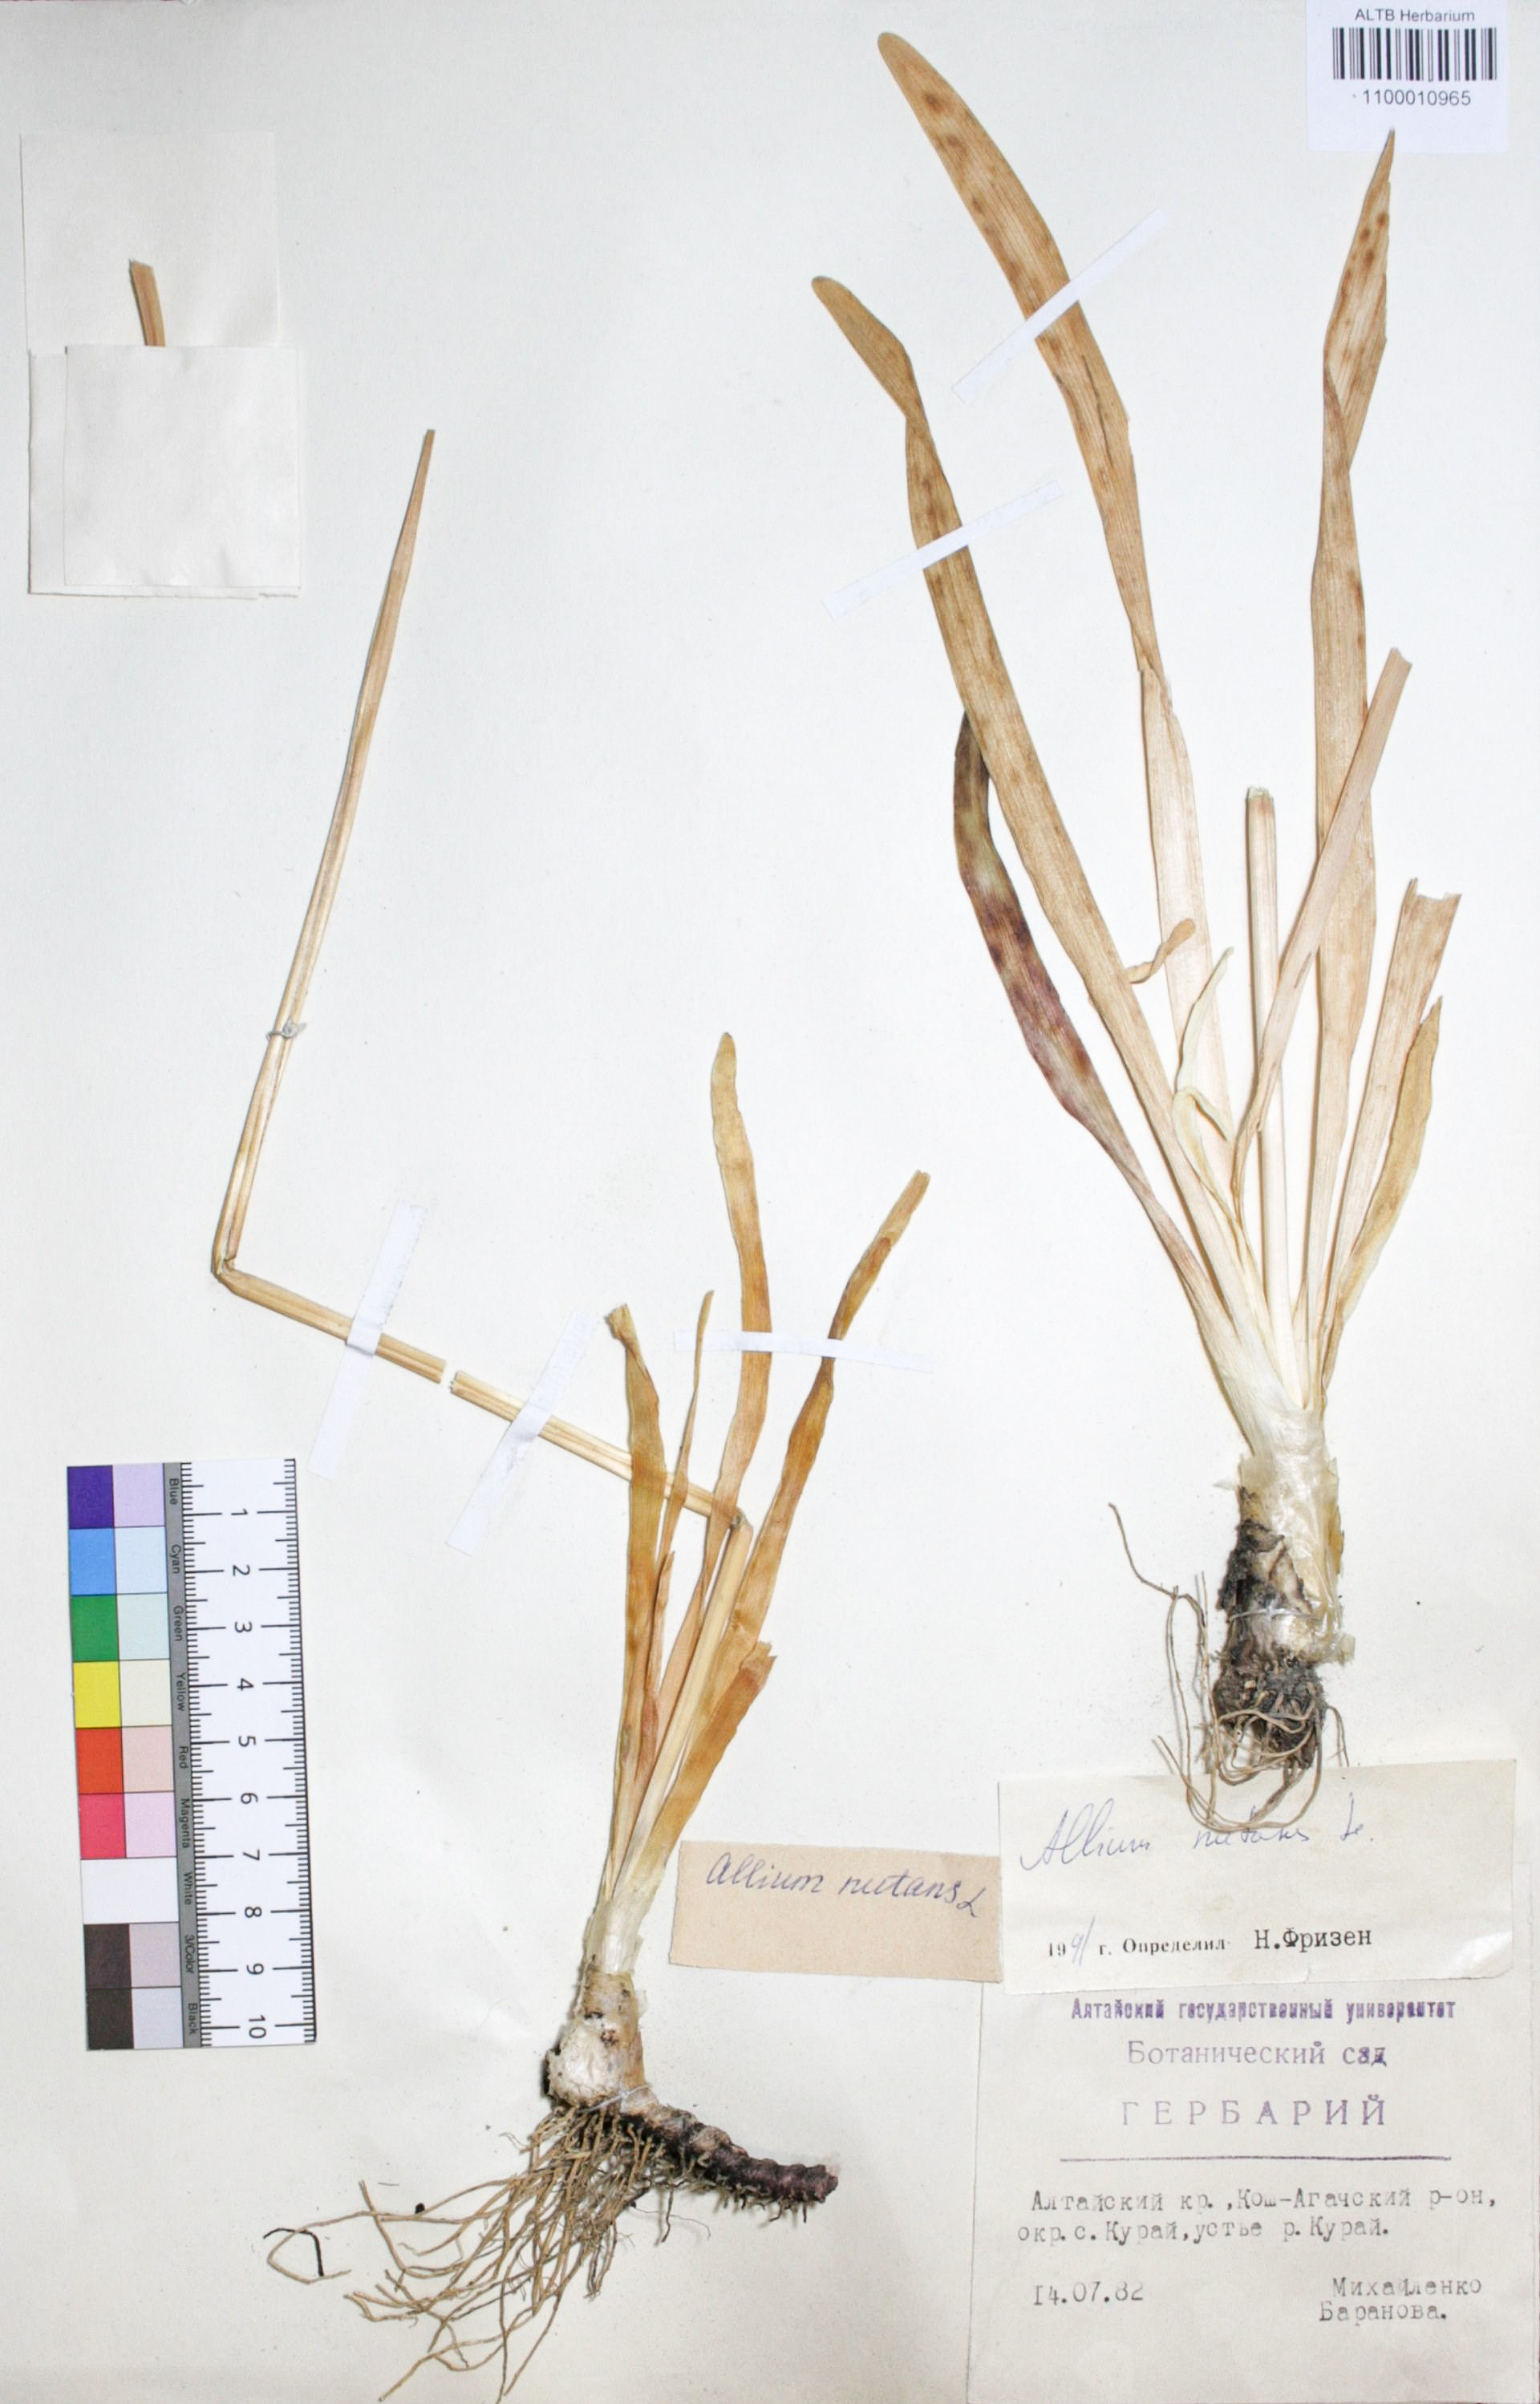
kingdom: Plantae
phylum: Tracheophyta
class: Liliopsida
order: Asparagales
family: Amaryllidaceae
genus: Allium
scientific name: Allium nutans
